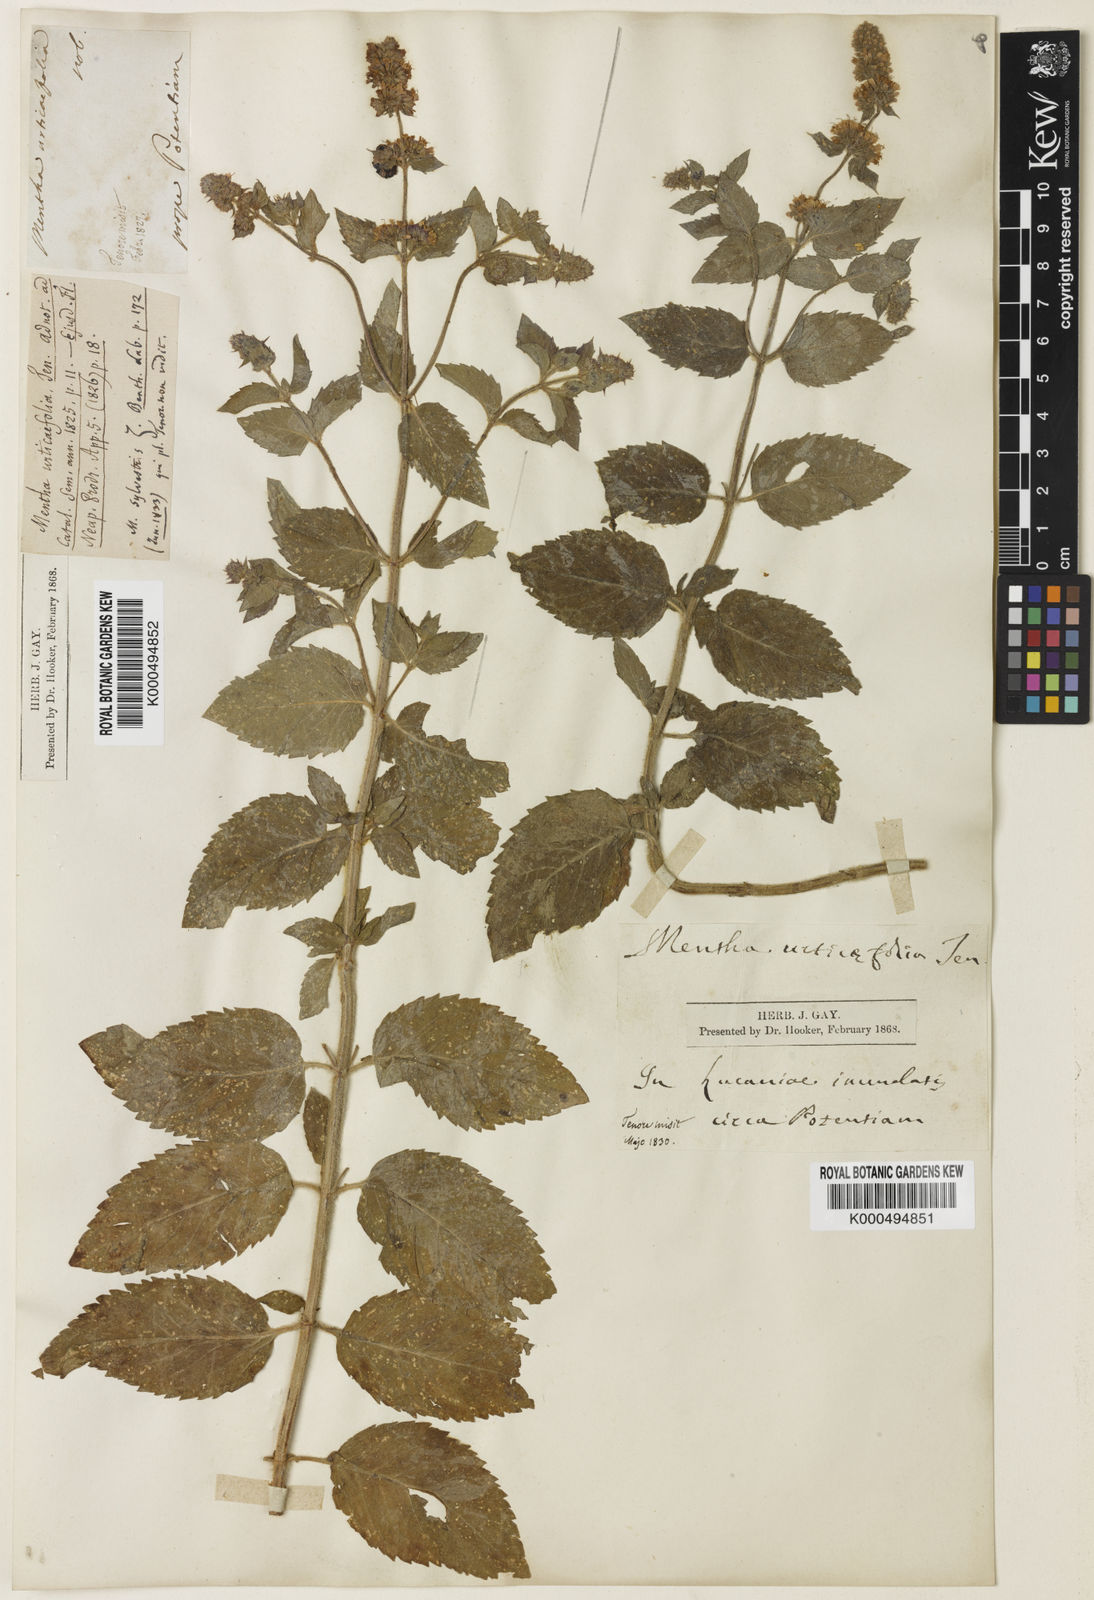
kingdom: Plantae
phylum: Tracheophyta
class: Magnoliopsida
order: Lamiales
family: Lamiaceae
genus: Mentha
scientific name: Mentha dumetorum
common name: Bush-loving mint
